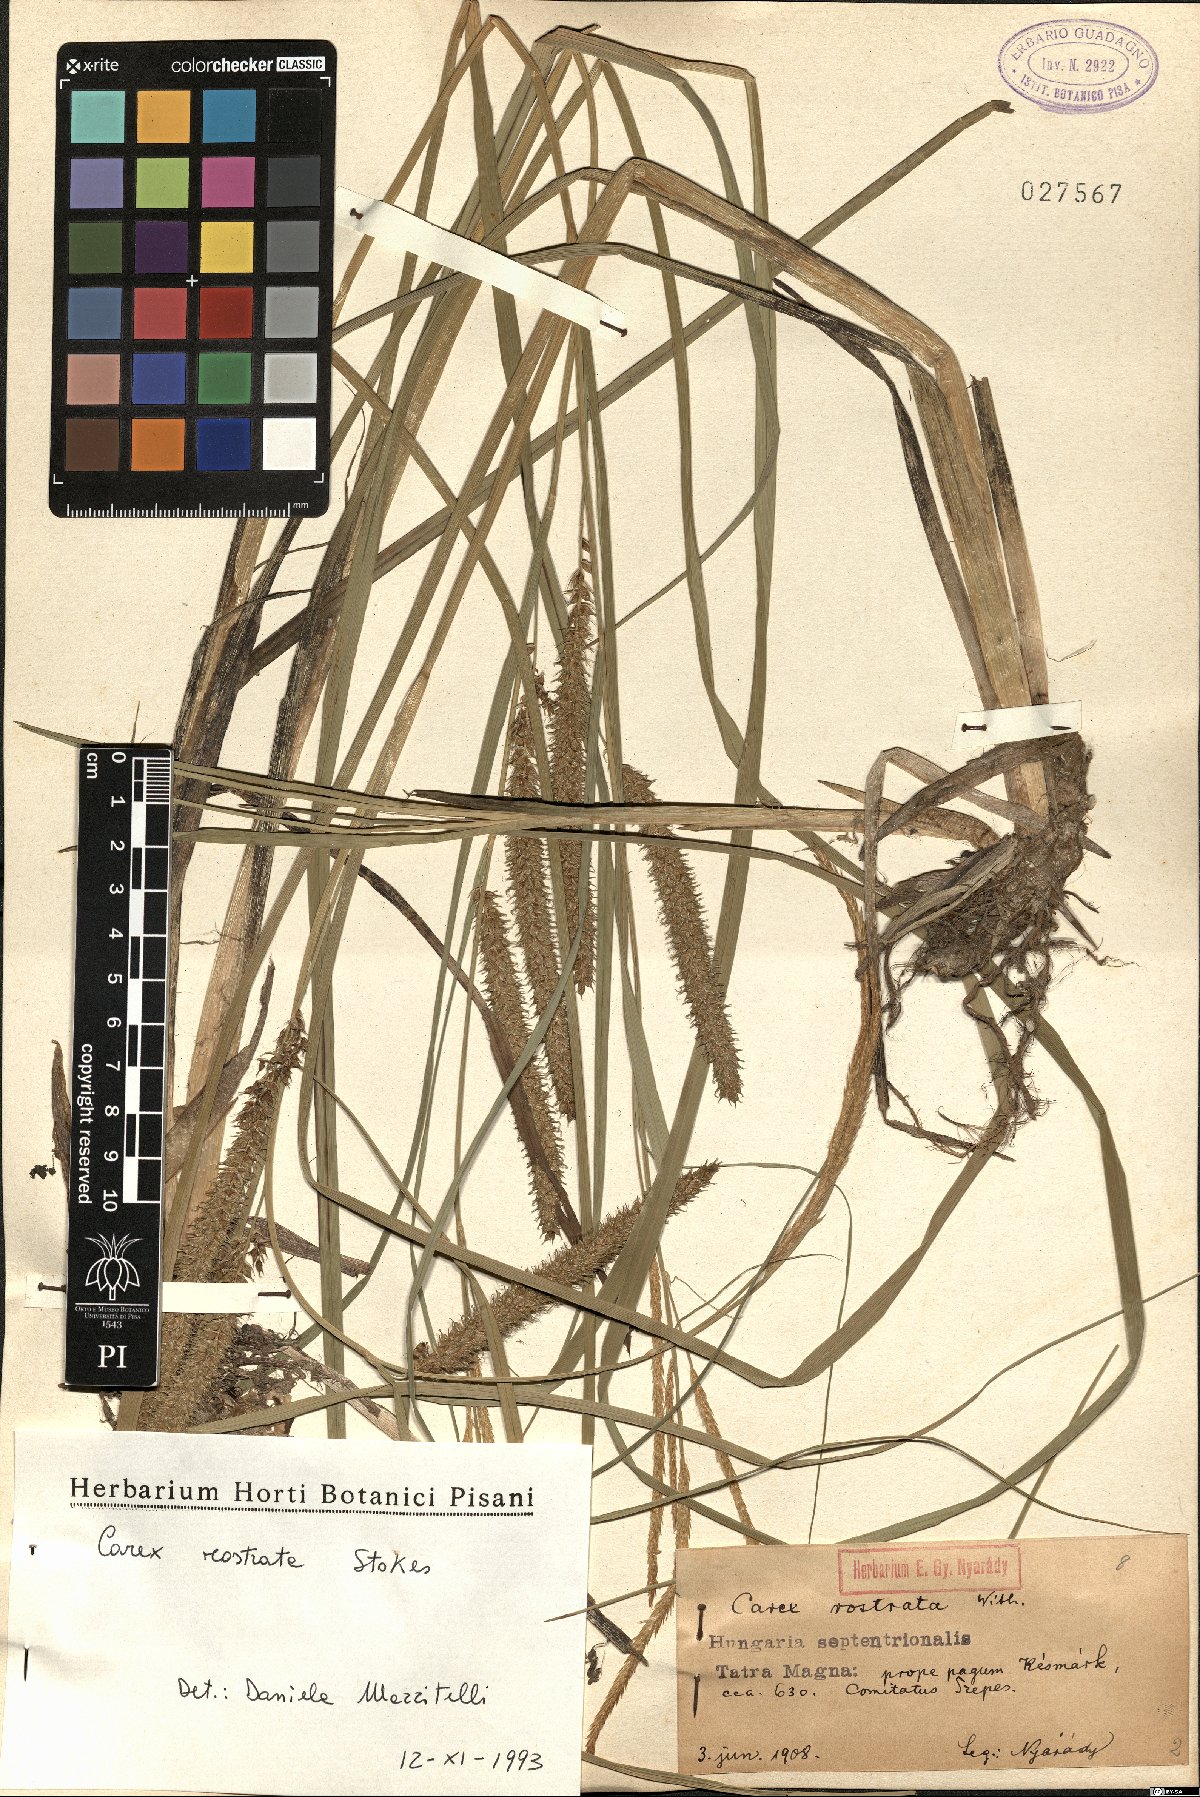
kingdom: Plantae
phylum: Tracheophyta
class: Liliopsida
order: Poales
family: Cyperaceae
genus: Carex
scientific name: Carex rostrata
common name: Bottle sedge
